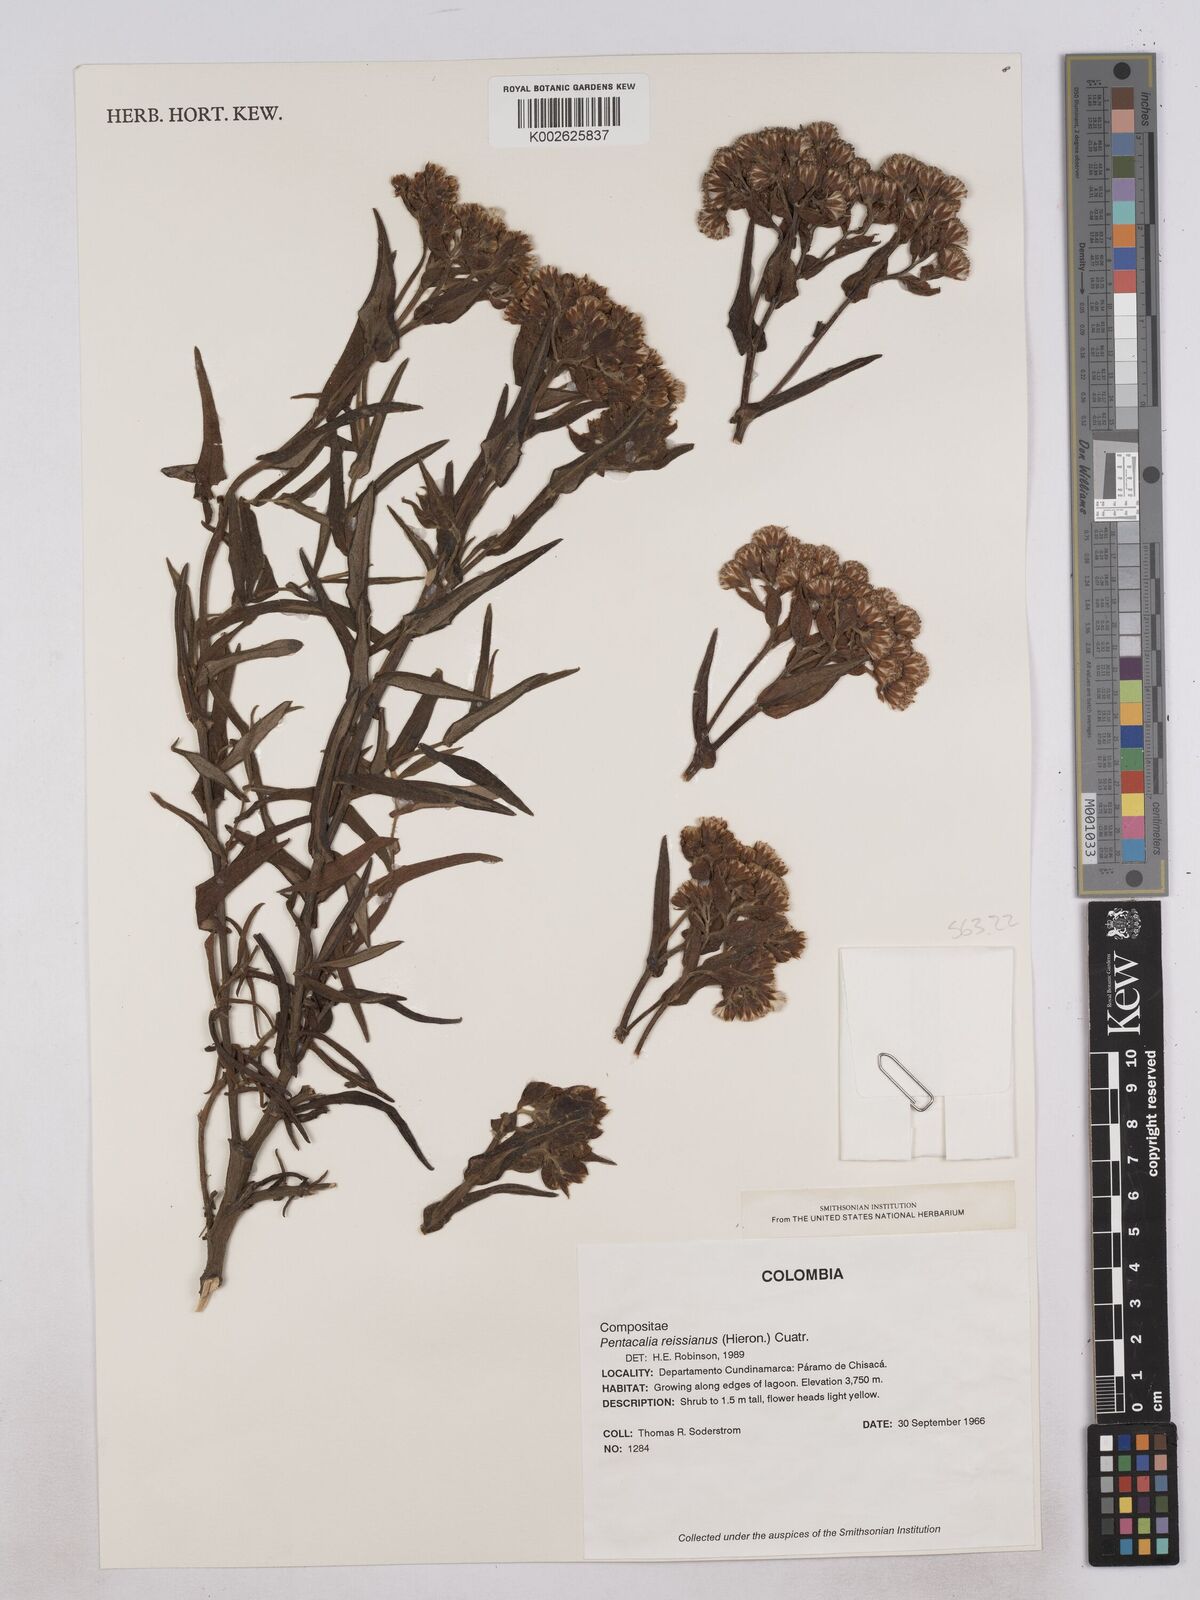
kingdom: Plantae
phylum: Tracheophyta
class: Magnoliopsida
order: Asterales
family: Asteraceae
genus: Monticalia
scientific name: Monticalia
